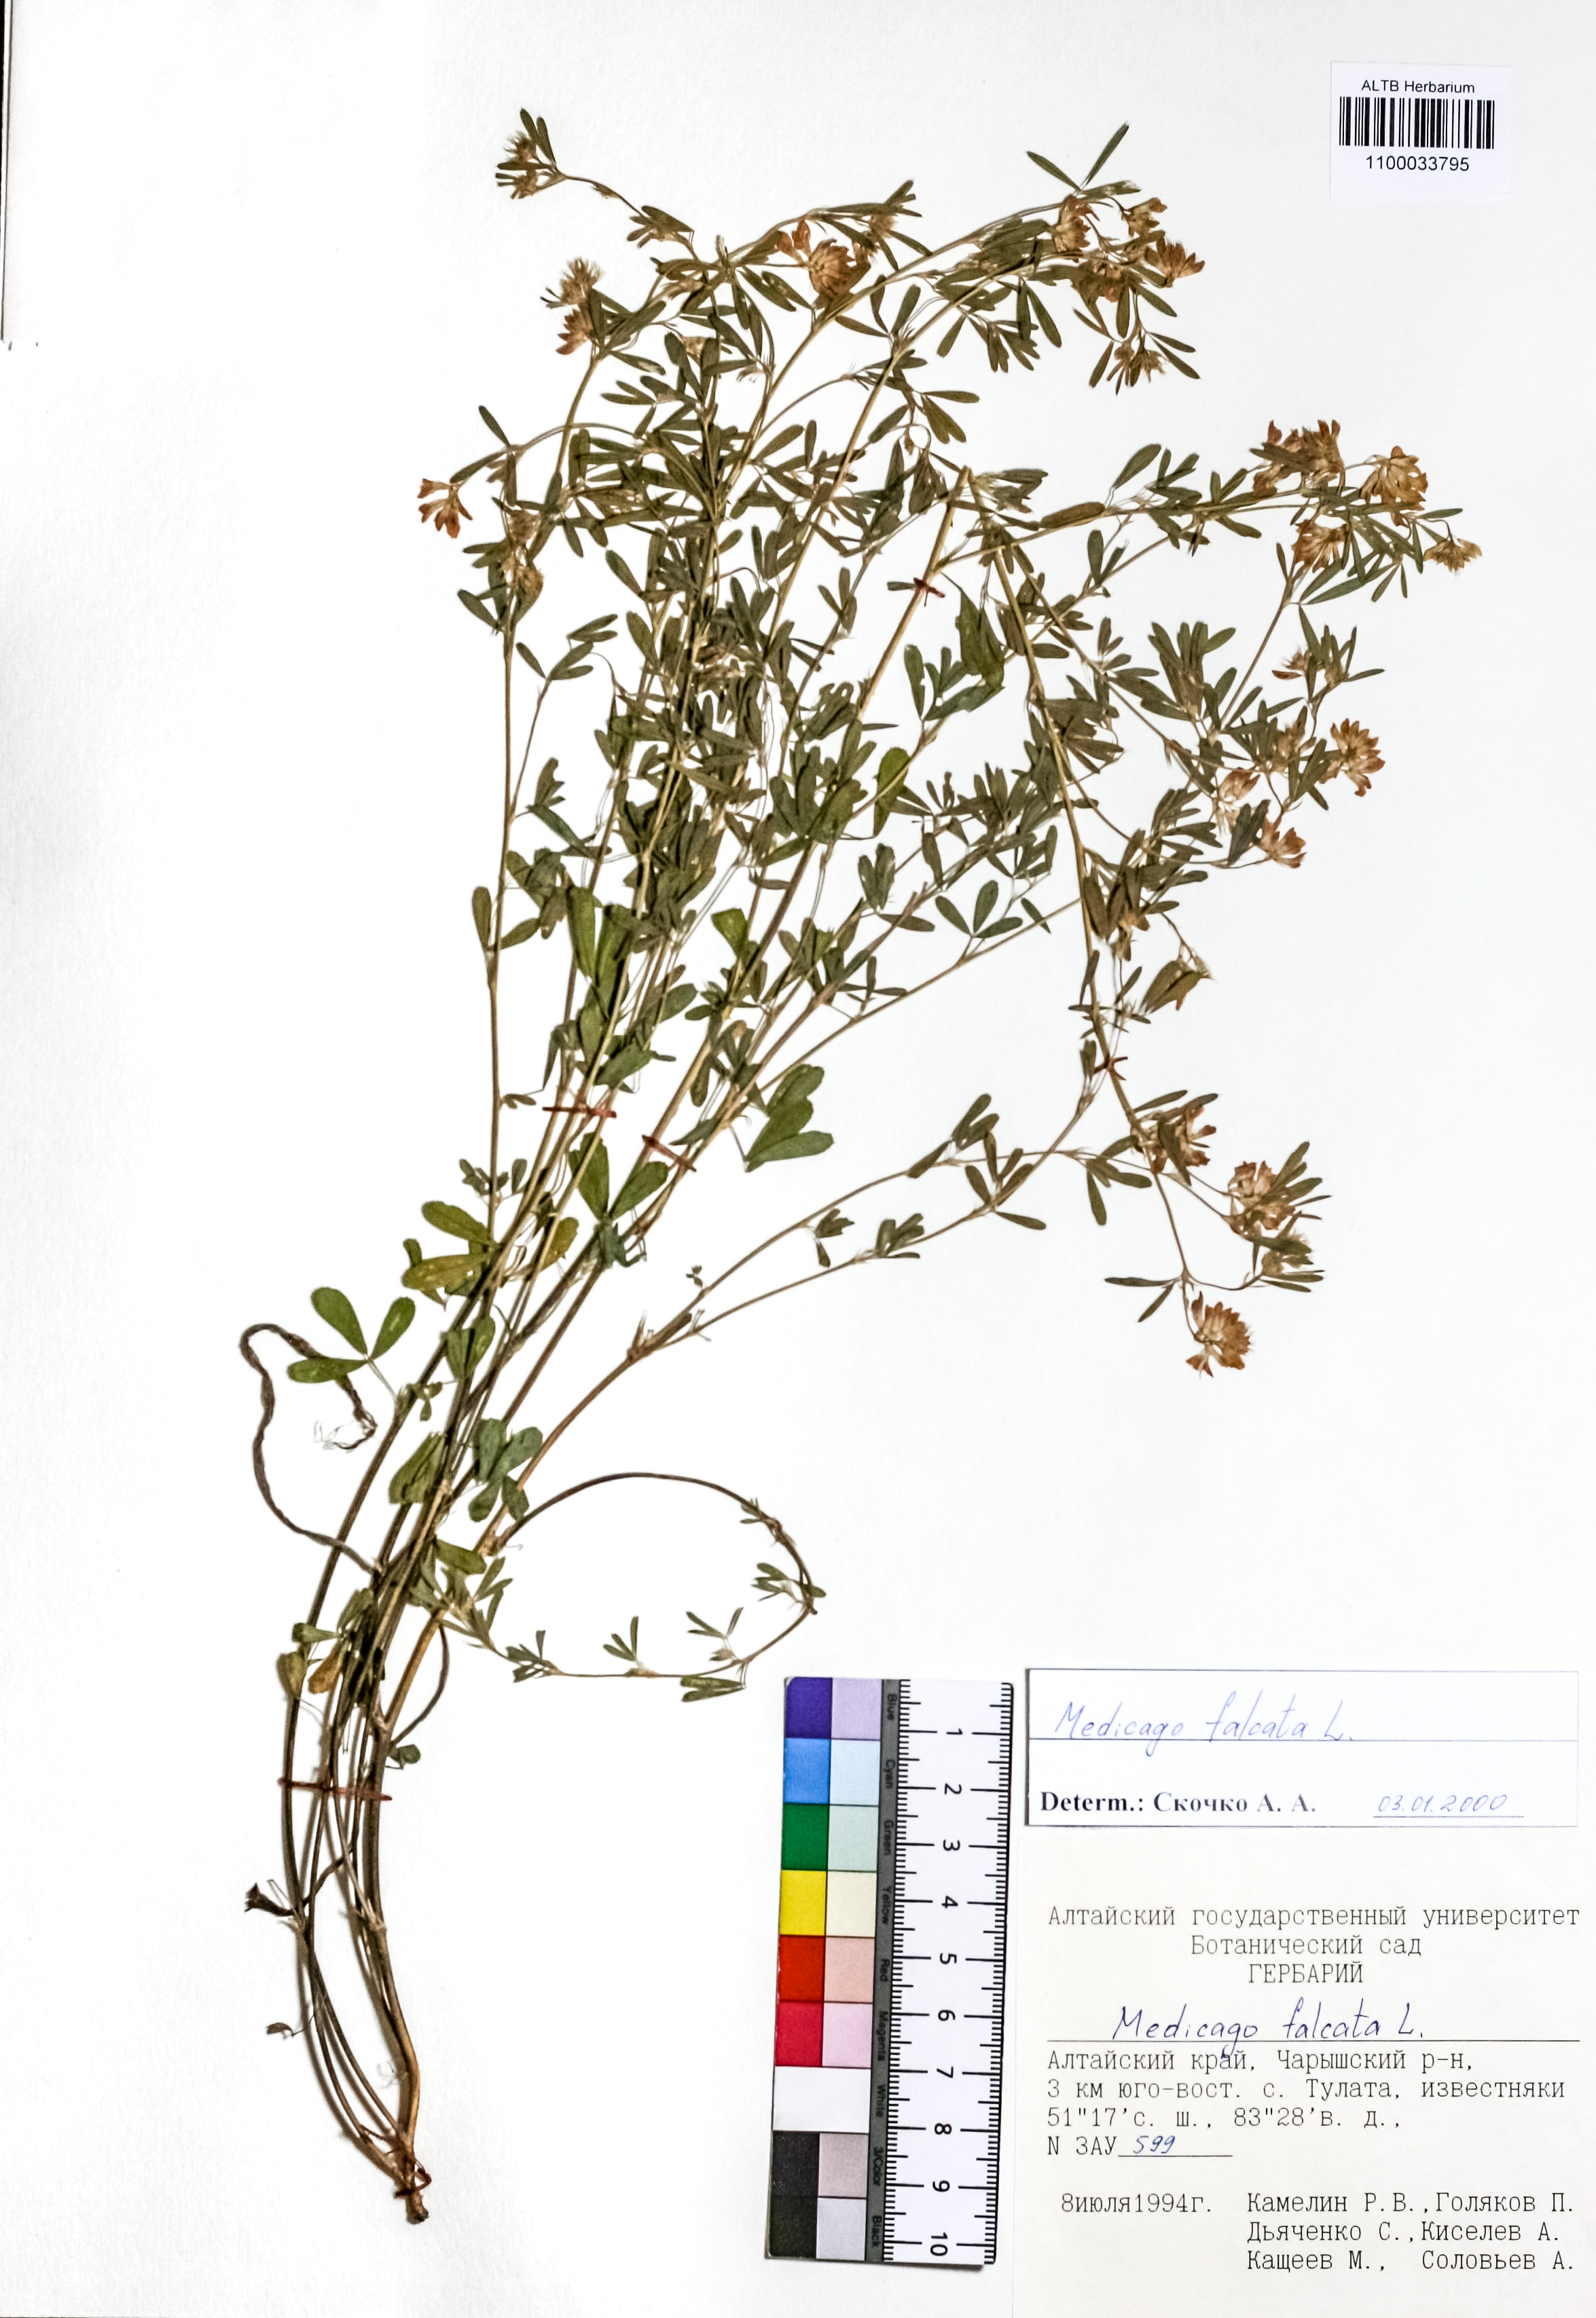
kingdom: Plantae
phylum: Tracheophyta
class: Magnoliopsida
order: Fabales
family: Fabaceae
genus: Medicago
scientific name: Medicago falcata
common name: Sickle medick
